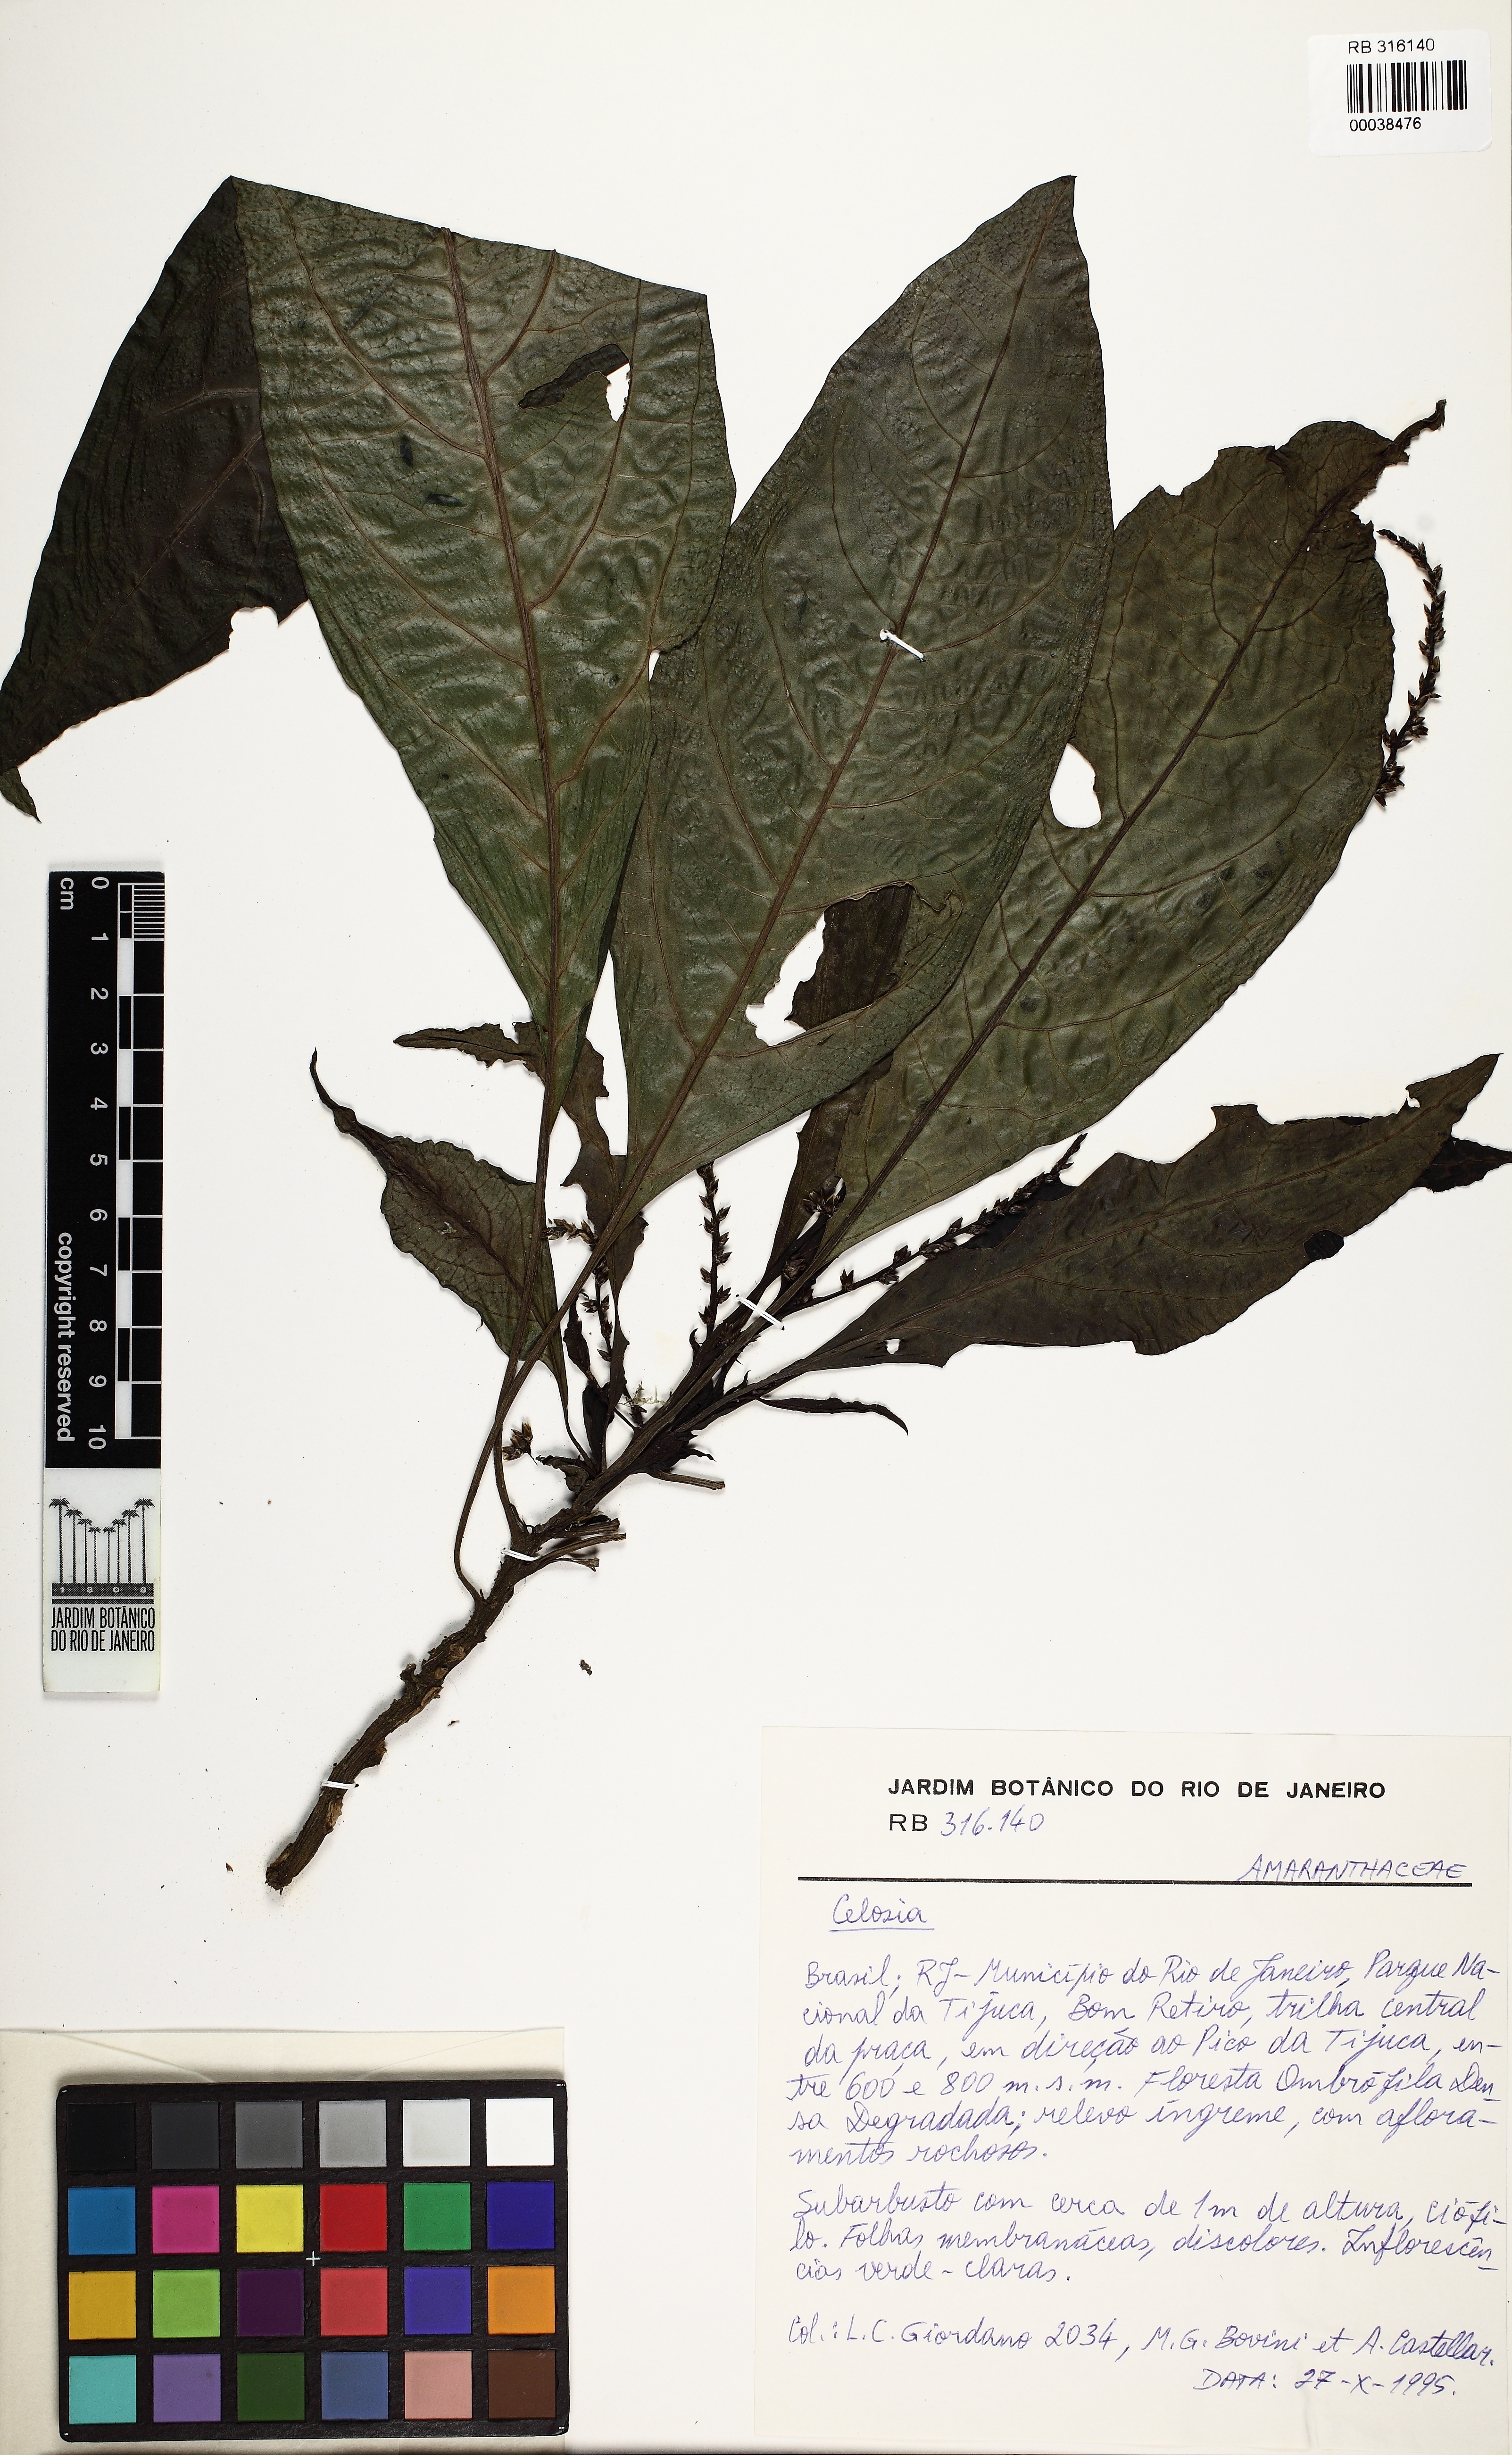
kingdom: Plantae
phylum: Tracheophyta
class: Magnoliopsida
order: Caryophyllales
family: Amaranthaceae
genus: Celosia
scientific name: Celosia
